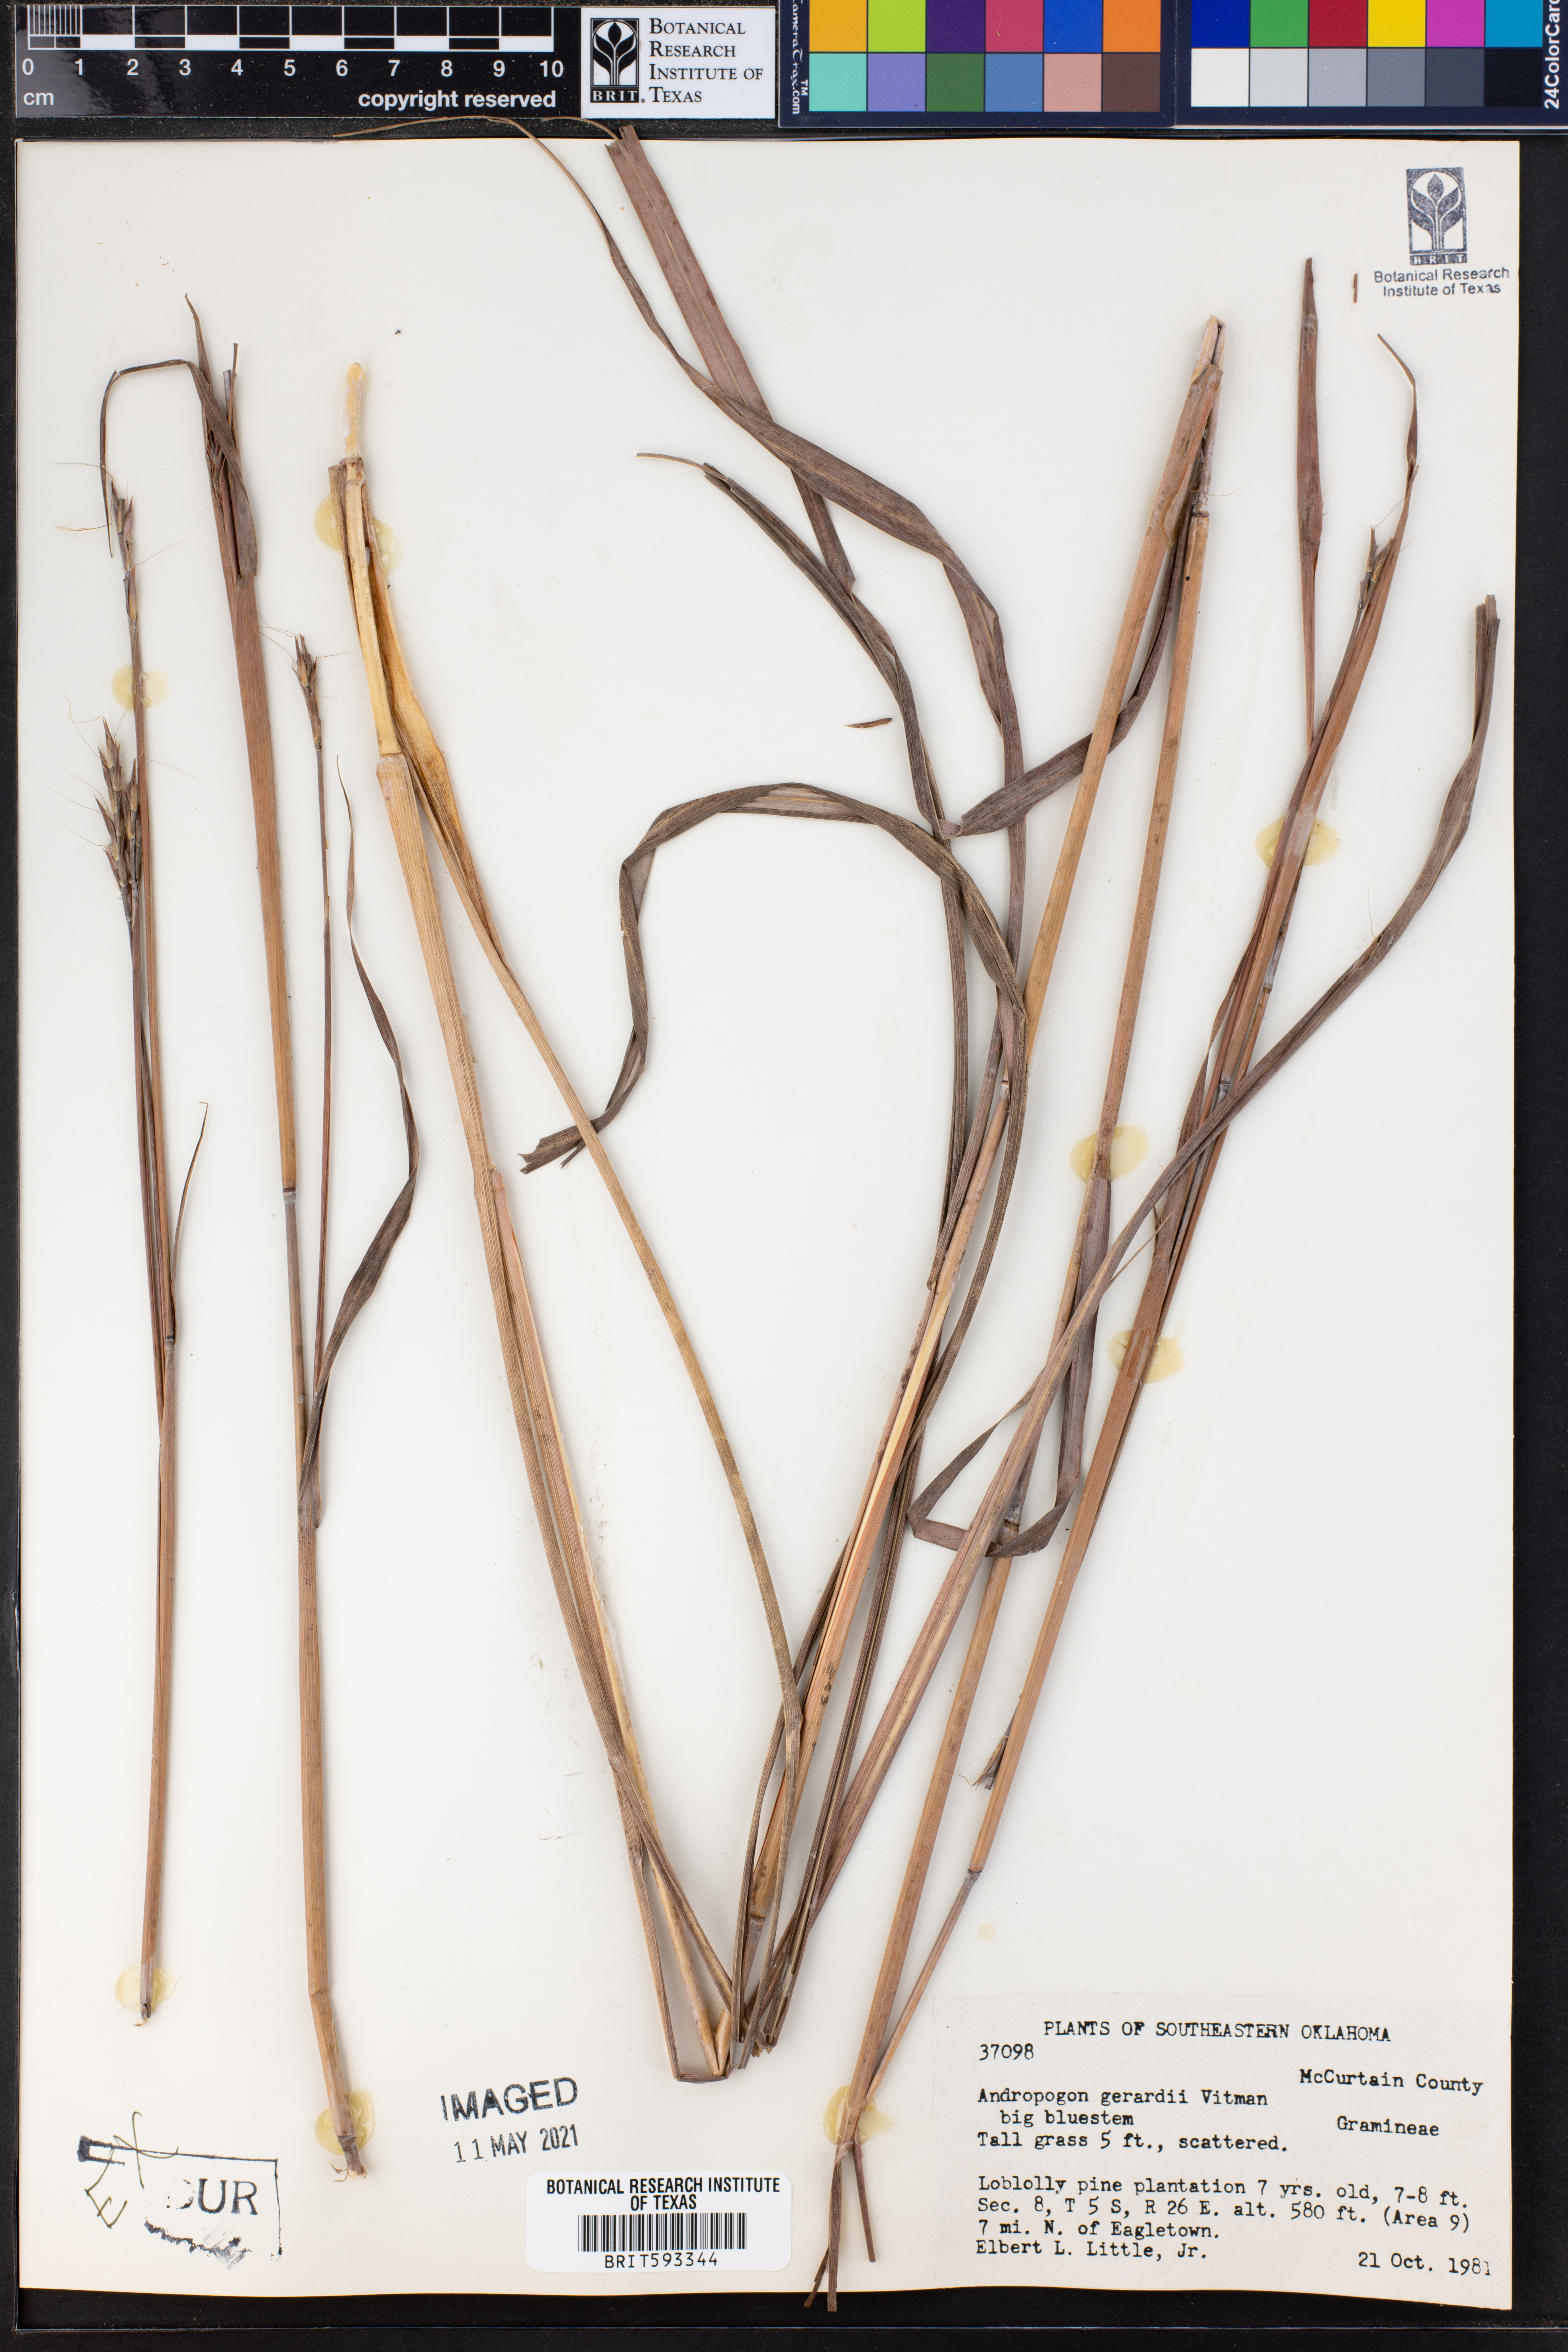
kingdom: Plantae
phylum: Tracheophyta
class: Liliopsida
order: Poales
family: Poaceae
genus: Andropogon
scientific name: Andropogon gerardi
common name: Big bluestem
